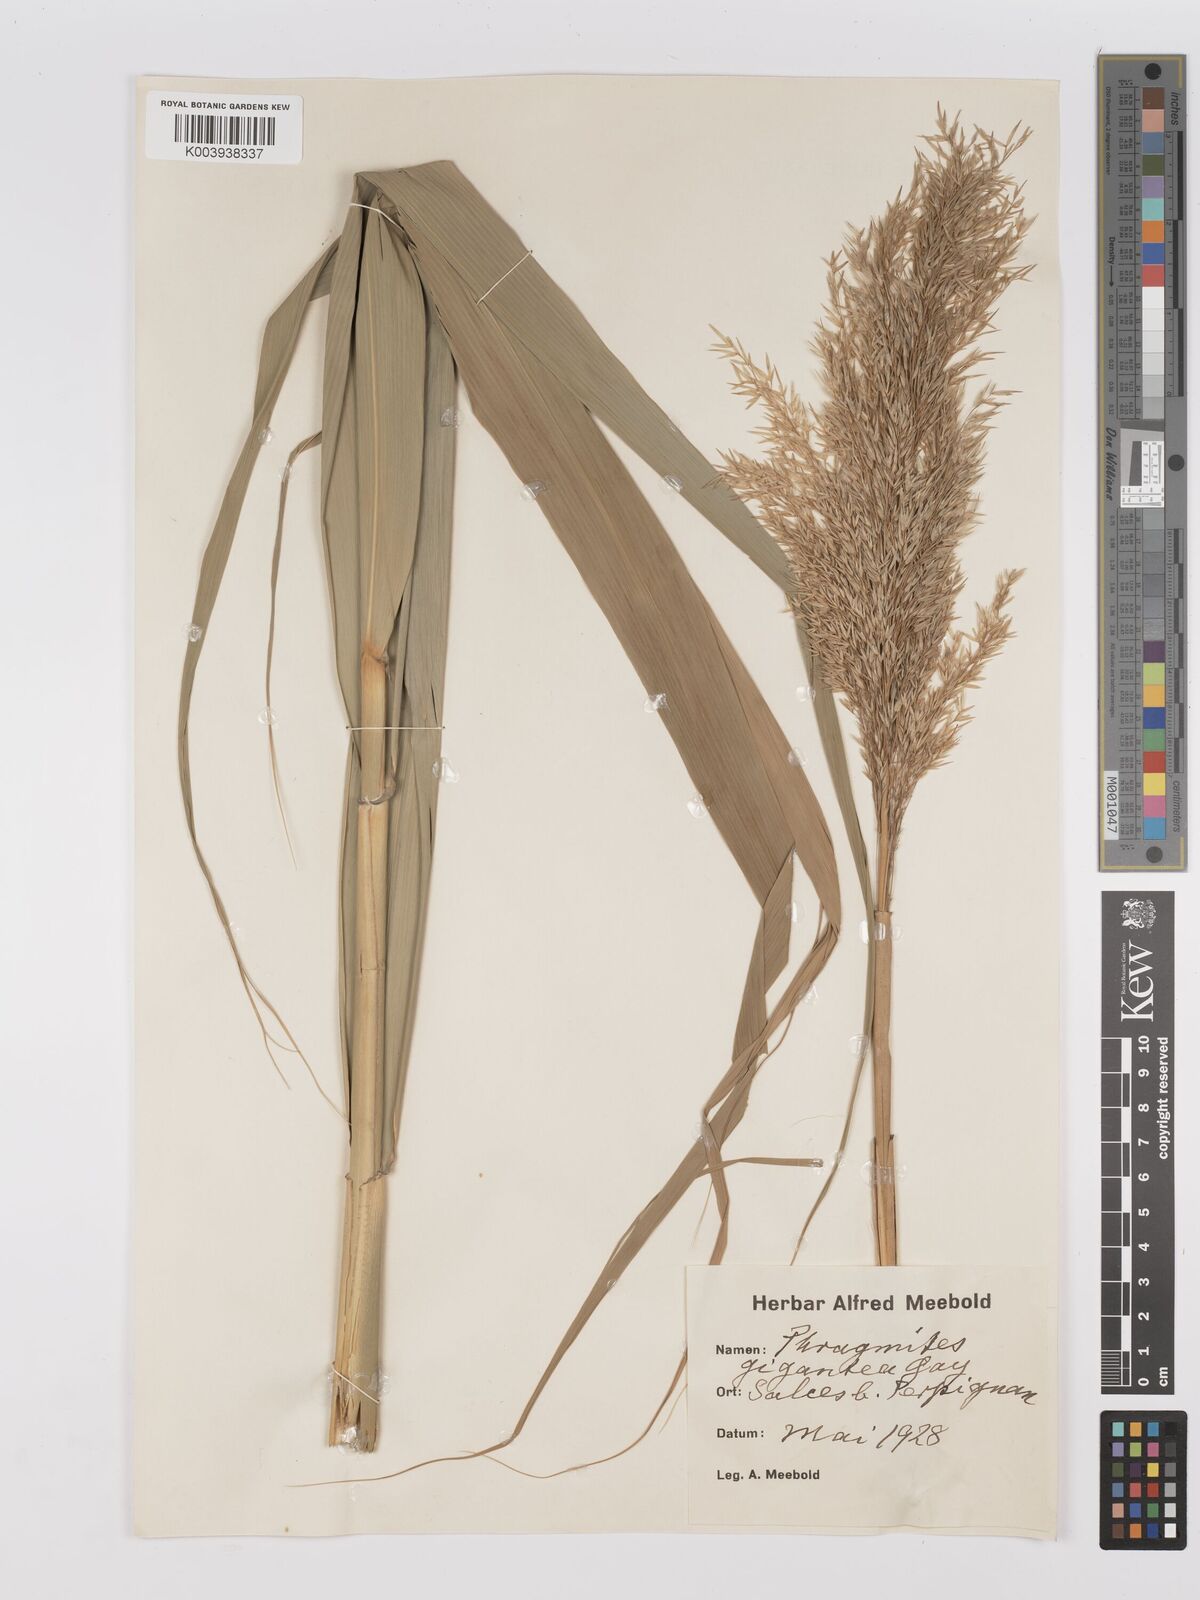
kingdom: Plantae
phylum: Tracheophyta
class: Liliopsida
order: Poales
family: Poaceae
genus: Phragmites
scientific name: Phragmites australis
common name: Common reed
